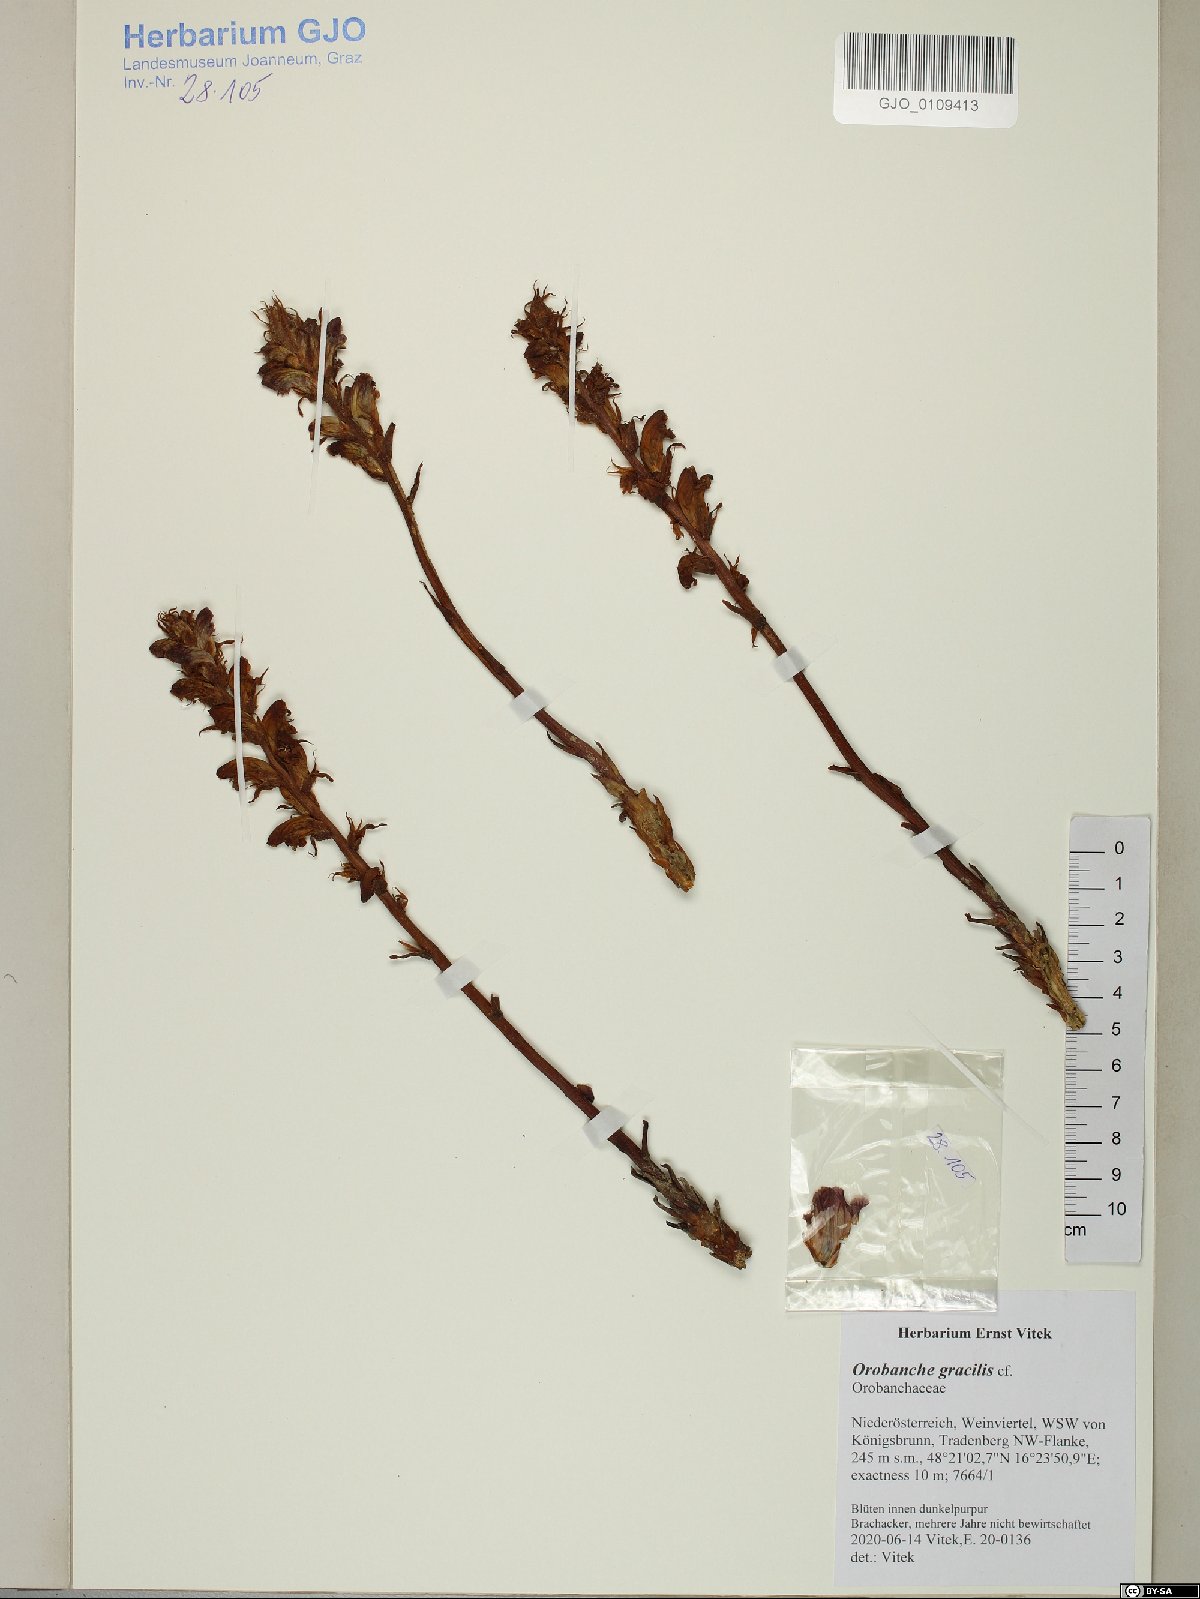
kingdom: Plantae
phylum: Tracheophyta
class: Magnoliopsida
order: Lamiales
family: Orobanchaceae
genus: Orobanche
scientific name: Orobanche gracilis
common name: Slender broomrape
